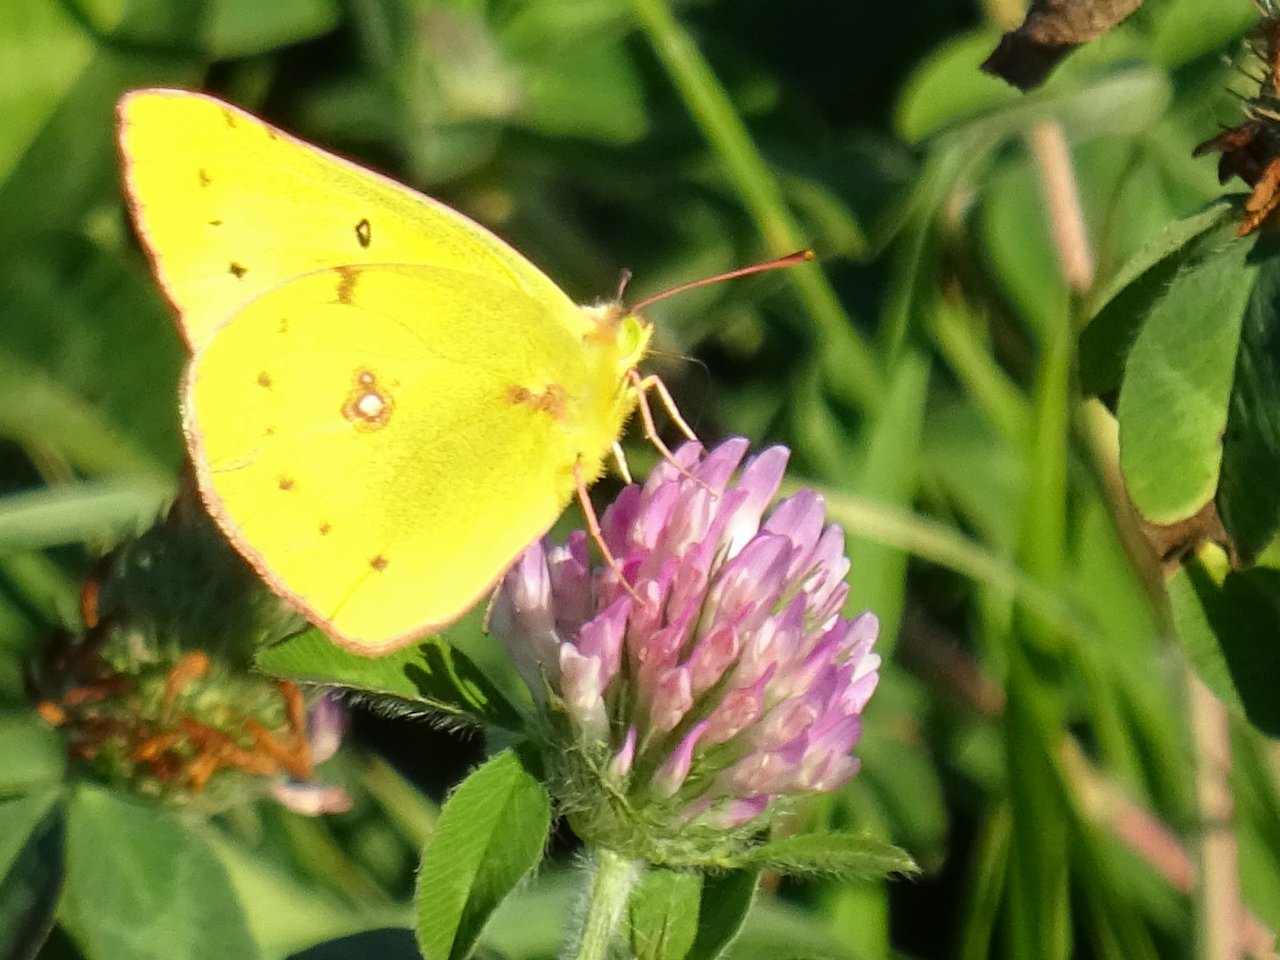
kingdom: Animalia
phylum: Arthropoda
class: Insecta
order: Lepidoptera
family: Pieridae
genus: Colias
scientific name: Colias philodice
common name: Clouded Sulphur
